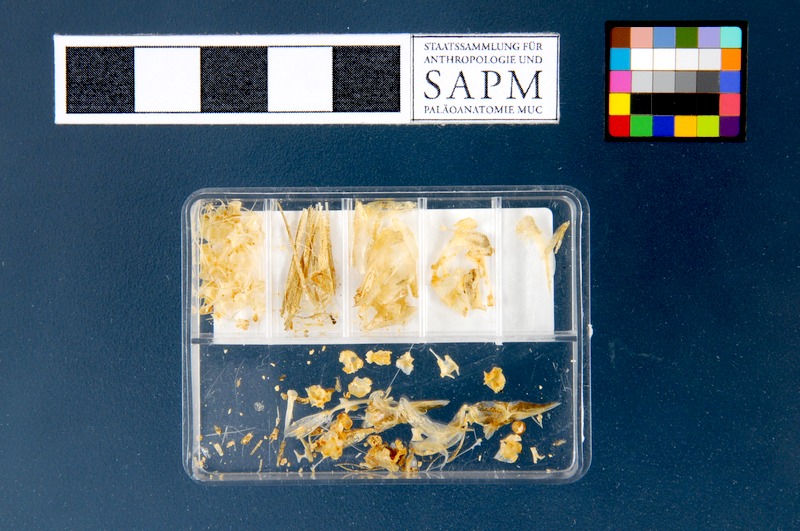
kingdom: Animalia
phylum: Chordata
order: Clupeiformes
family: Clupeidae
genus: Sprattus
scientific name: Sprattus sprattus
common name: Sprat
